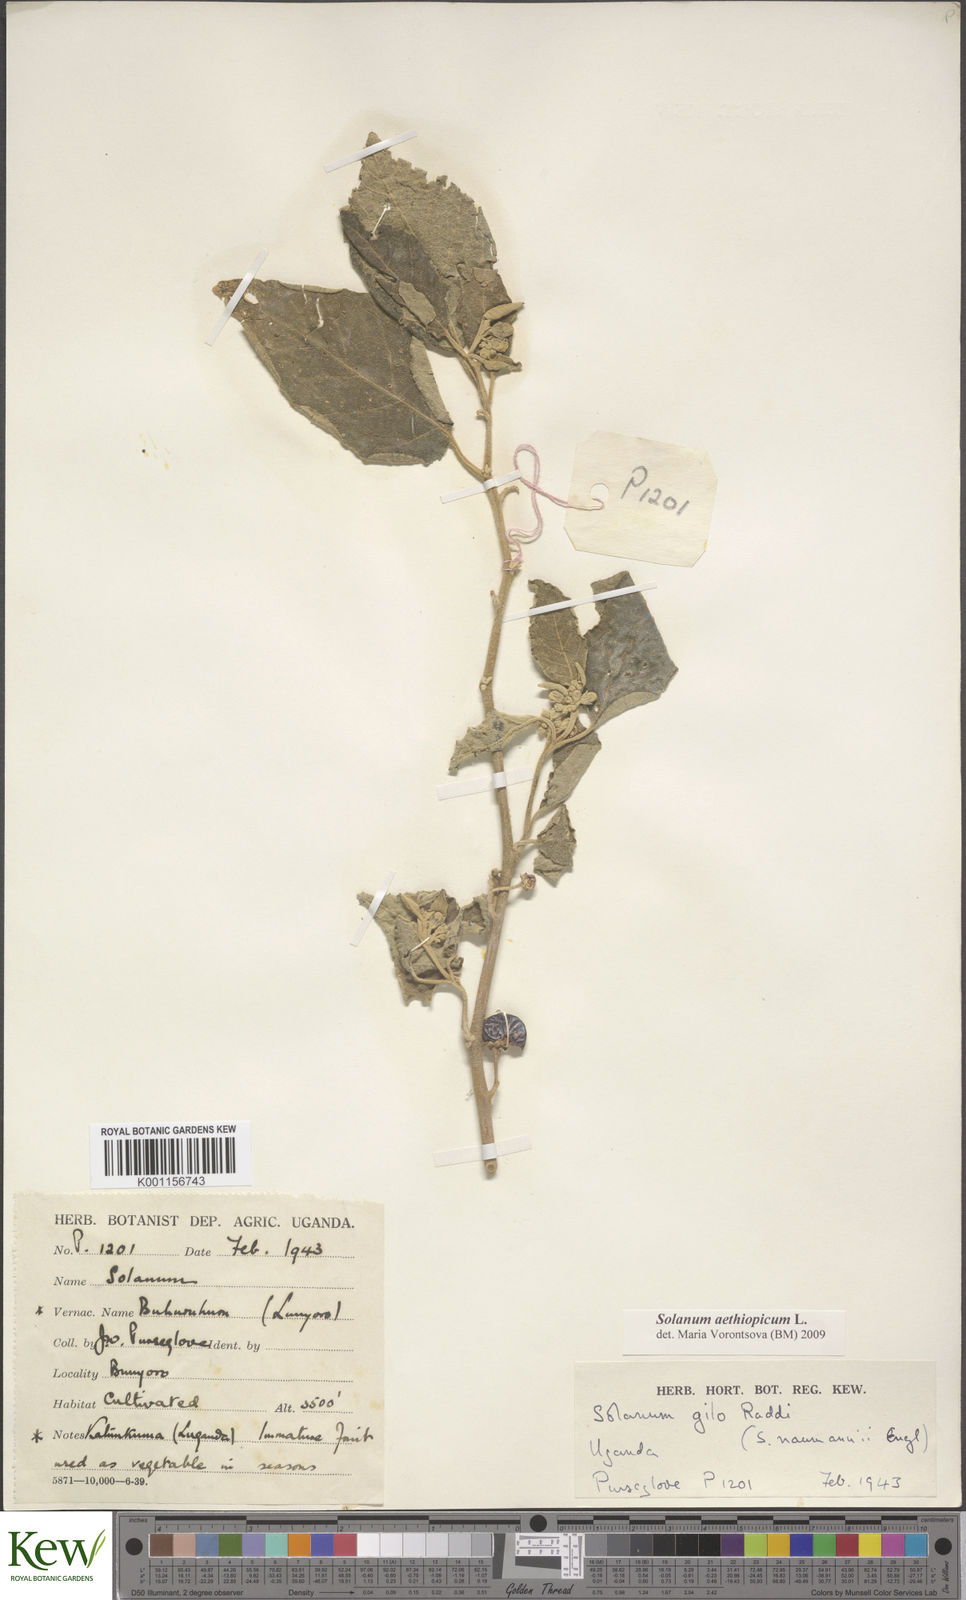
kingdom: Plantae
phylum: Tracheophyta
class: Magnoliopsida
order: Solanales
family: Solanaceae
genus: Solanum
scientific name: Solanum aethiopicum
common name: Gilo
